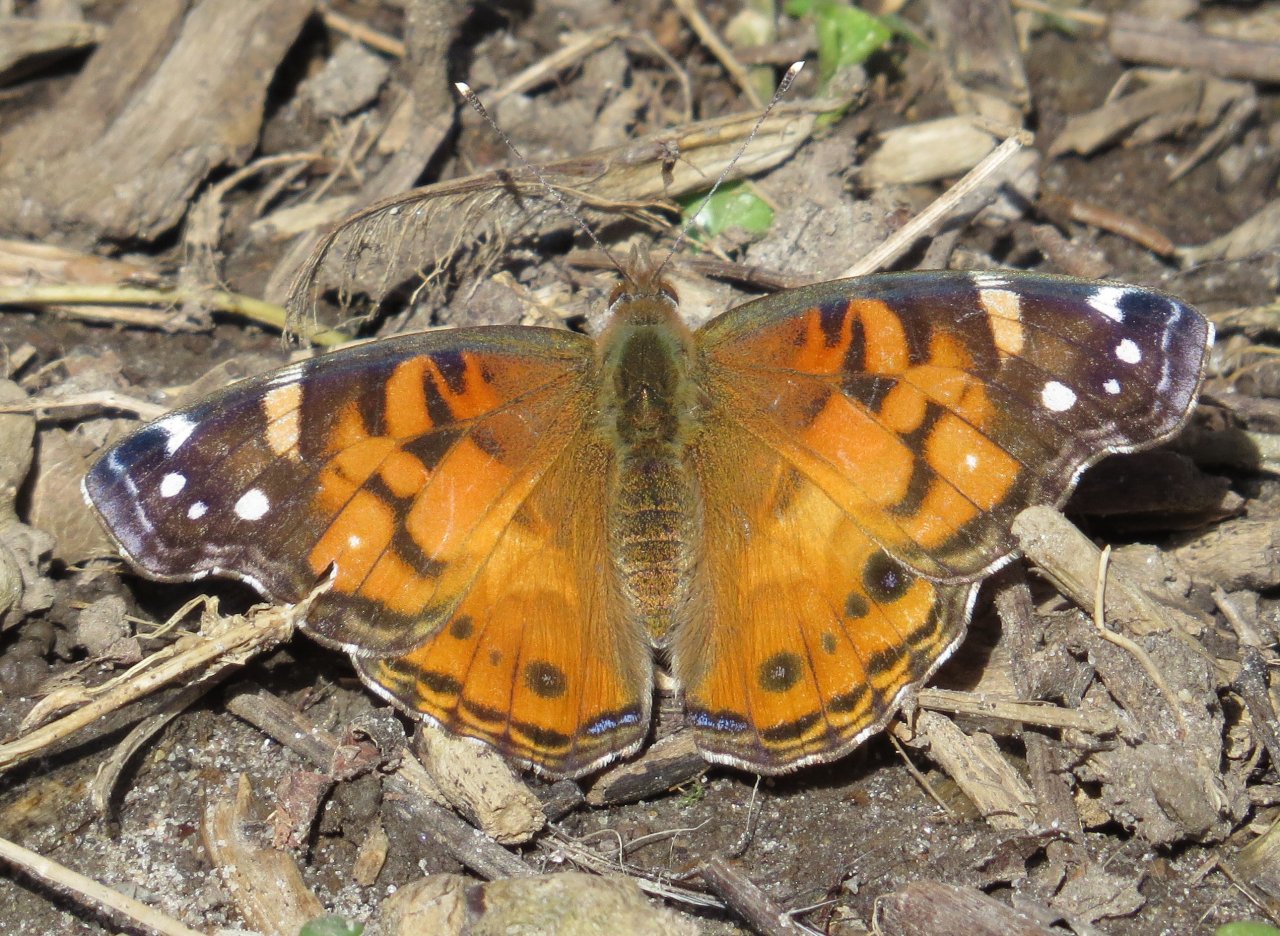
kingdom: Animalia
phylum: Arthropoda
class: Insecta
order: Lepidoptera
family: Nymphalidae
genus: Vanessa
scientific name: Vanessa virginiensis
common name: American Lady
